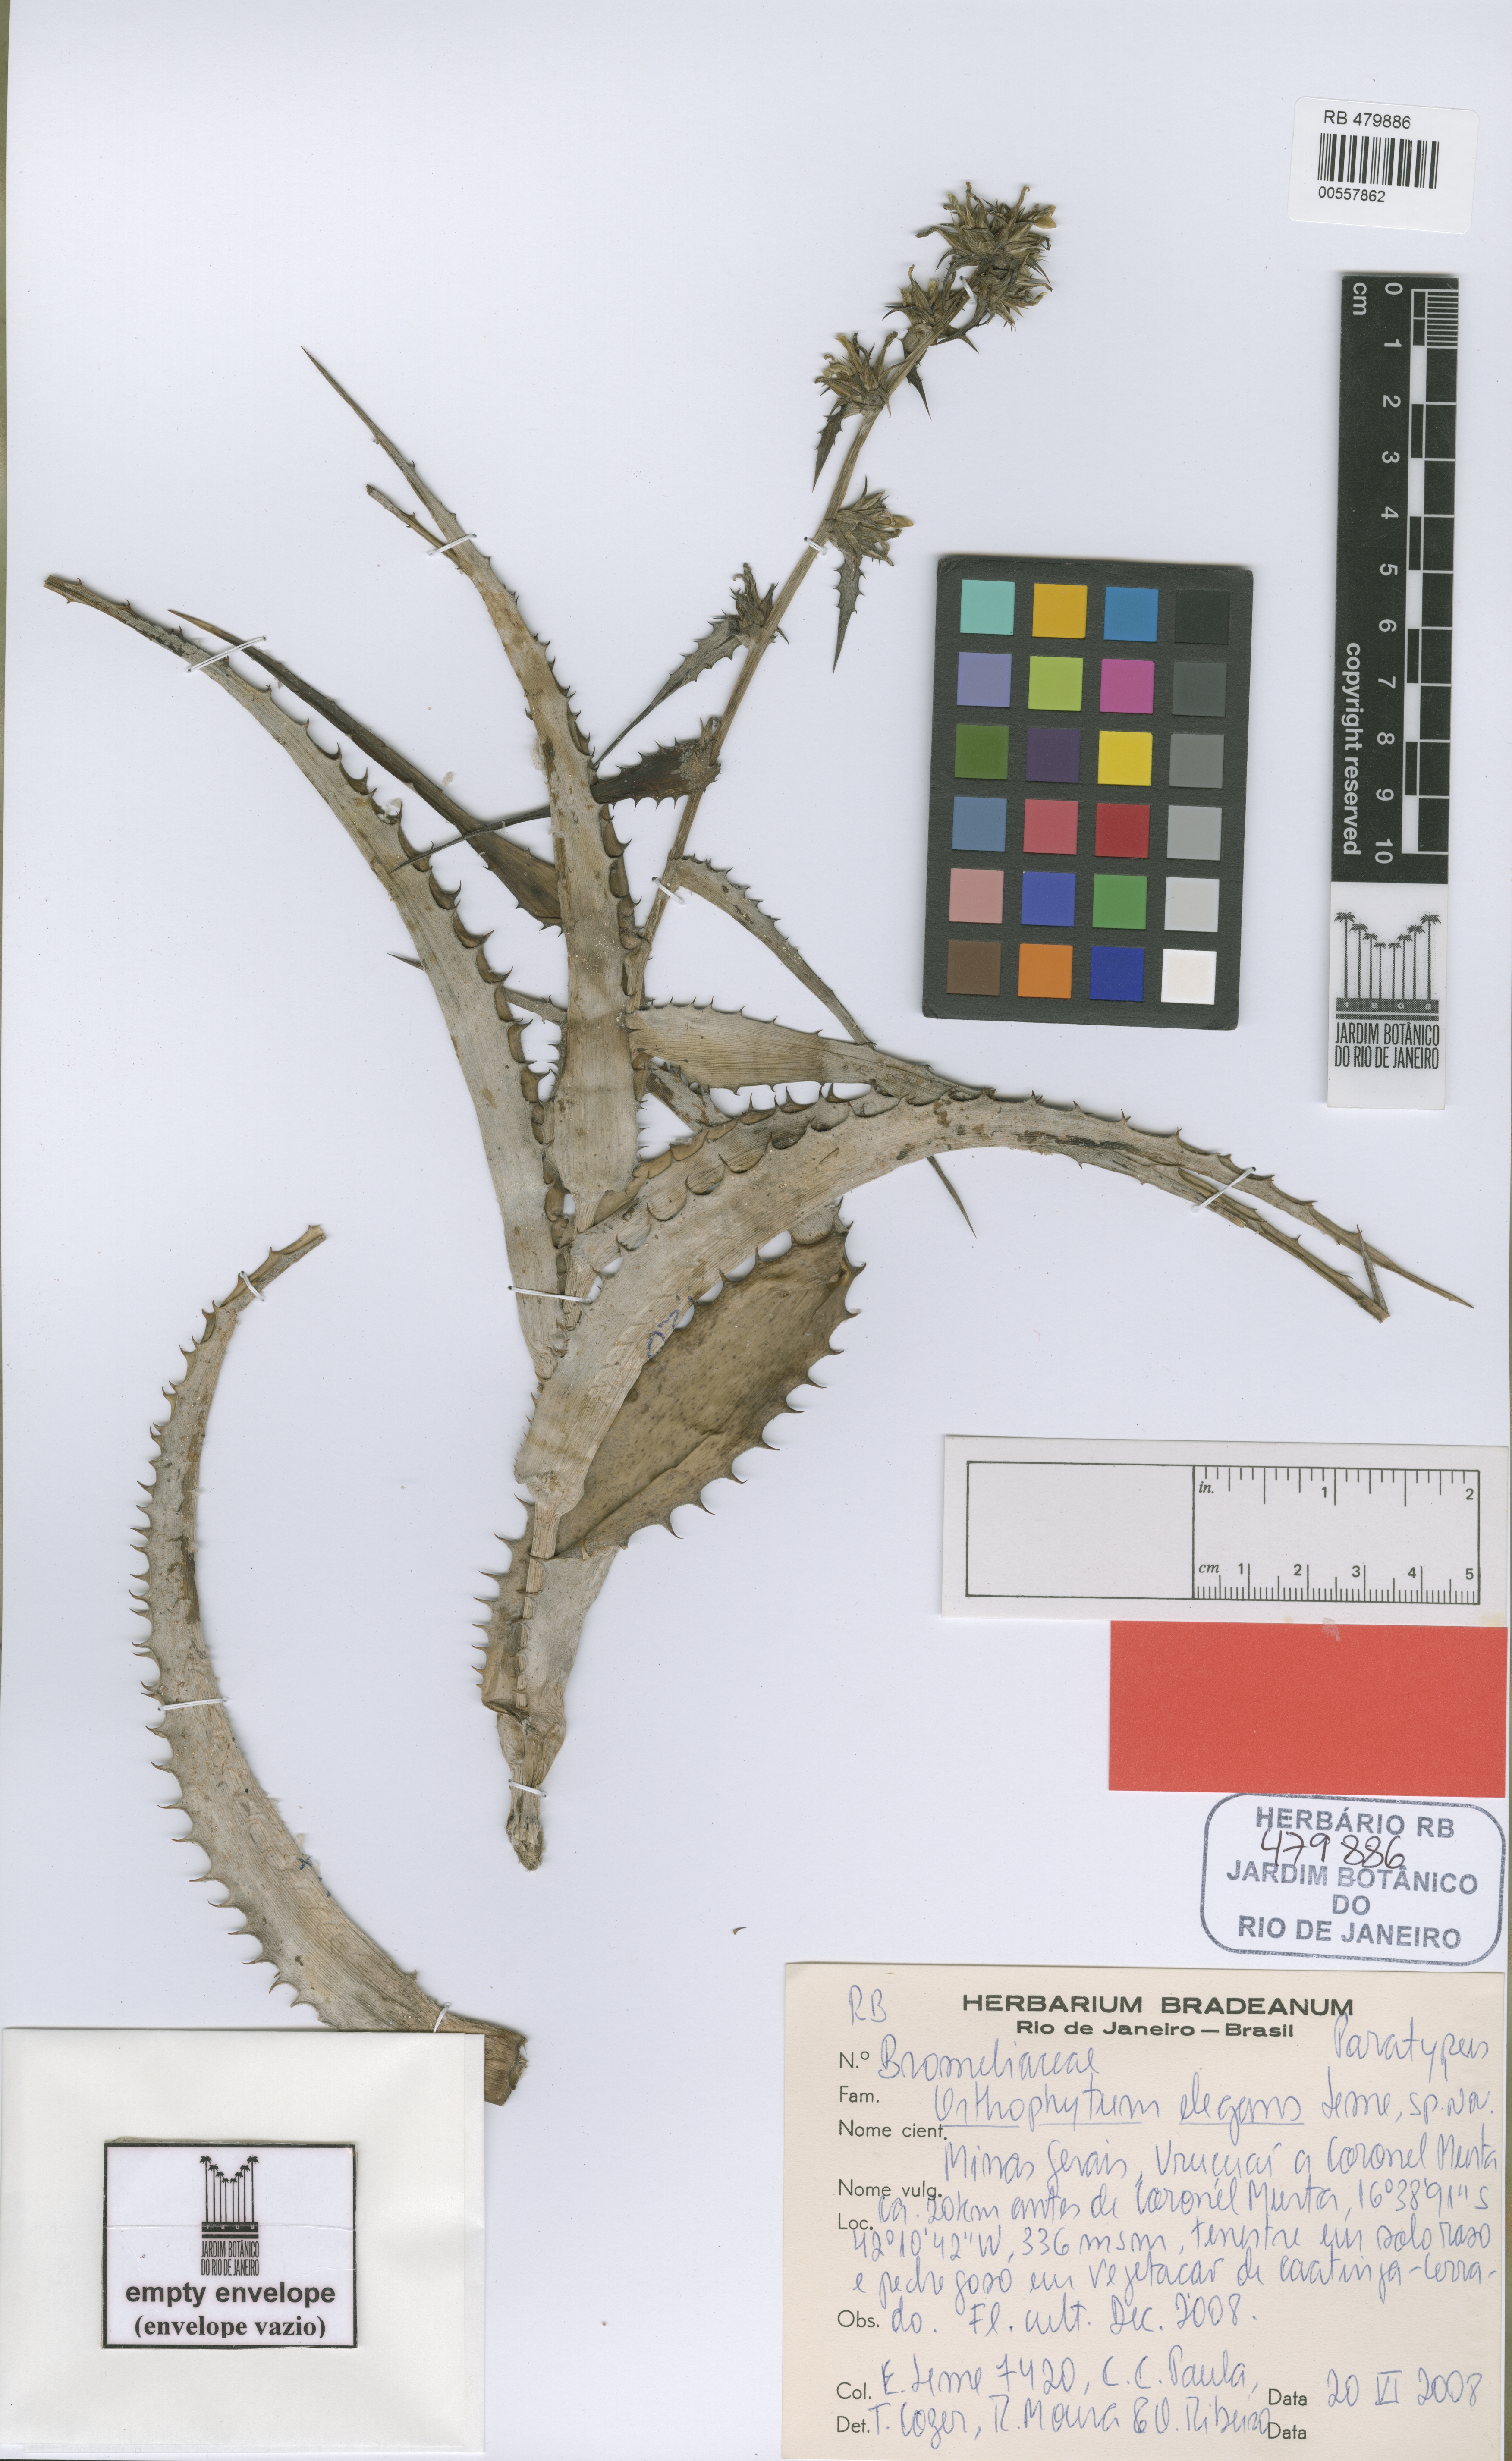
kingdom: Plantae
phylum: Tracheophyta
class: Liliopsida
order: Poales
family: Bromeliaceae
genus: Orthophytum
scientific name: Orthophytum elegans
